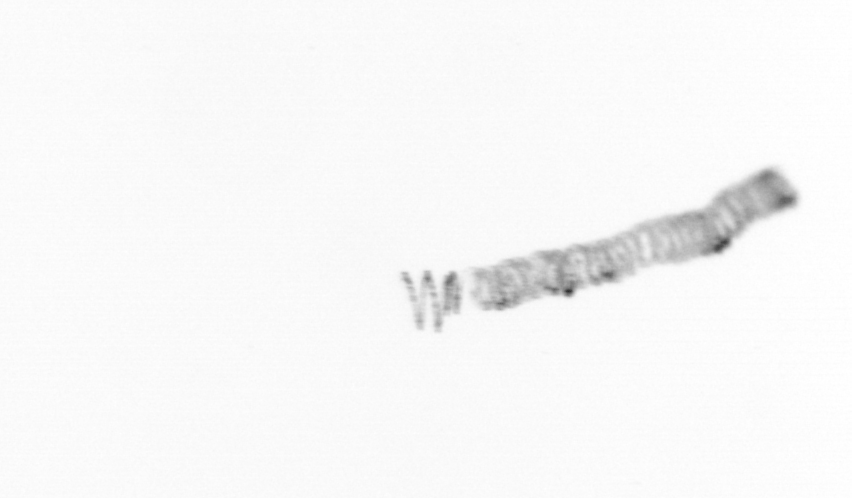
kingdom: Chromista
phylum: Ochrophyta
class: Bacillariophyceae
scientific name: Bacillariophyceae
